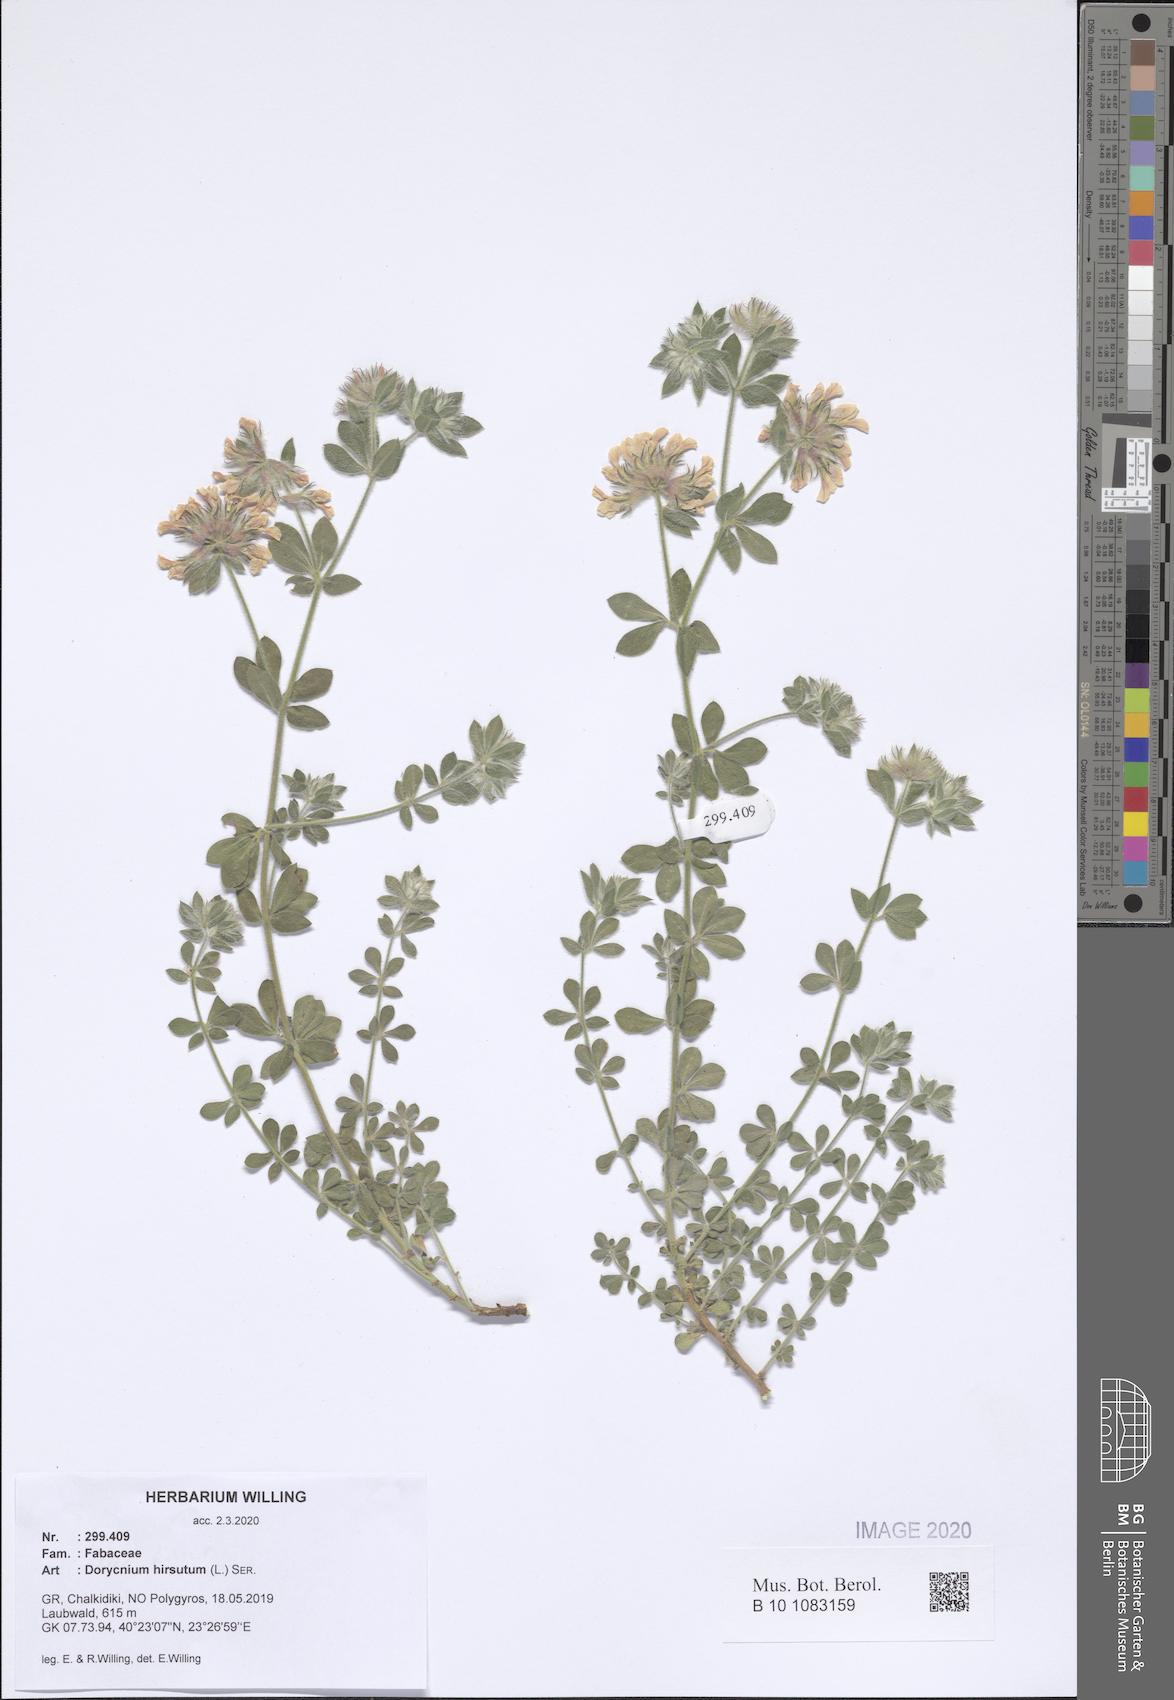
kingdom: Plantae
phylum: Tracheophyta
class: Magnoliopsida
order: Fabales
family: Fabaceae
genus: Lotus
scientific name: Lotus hirsutus
